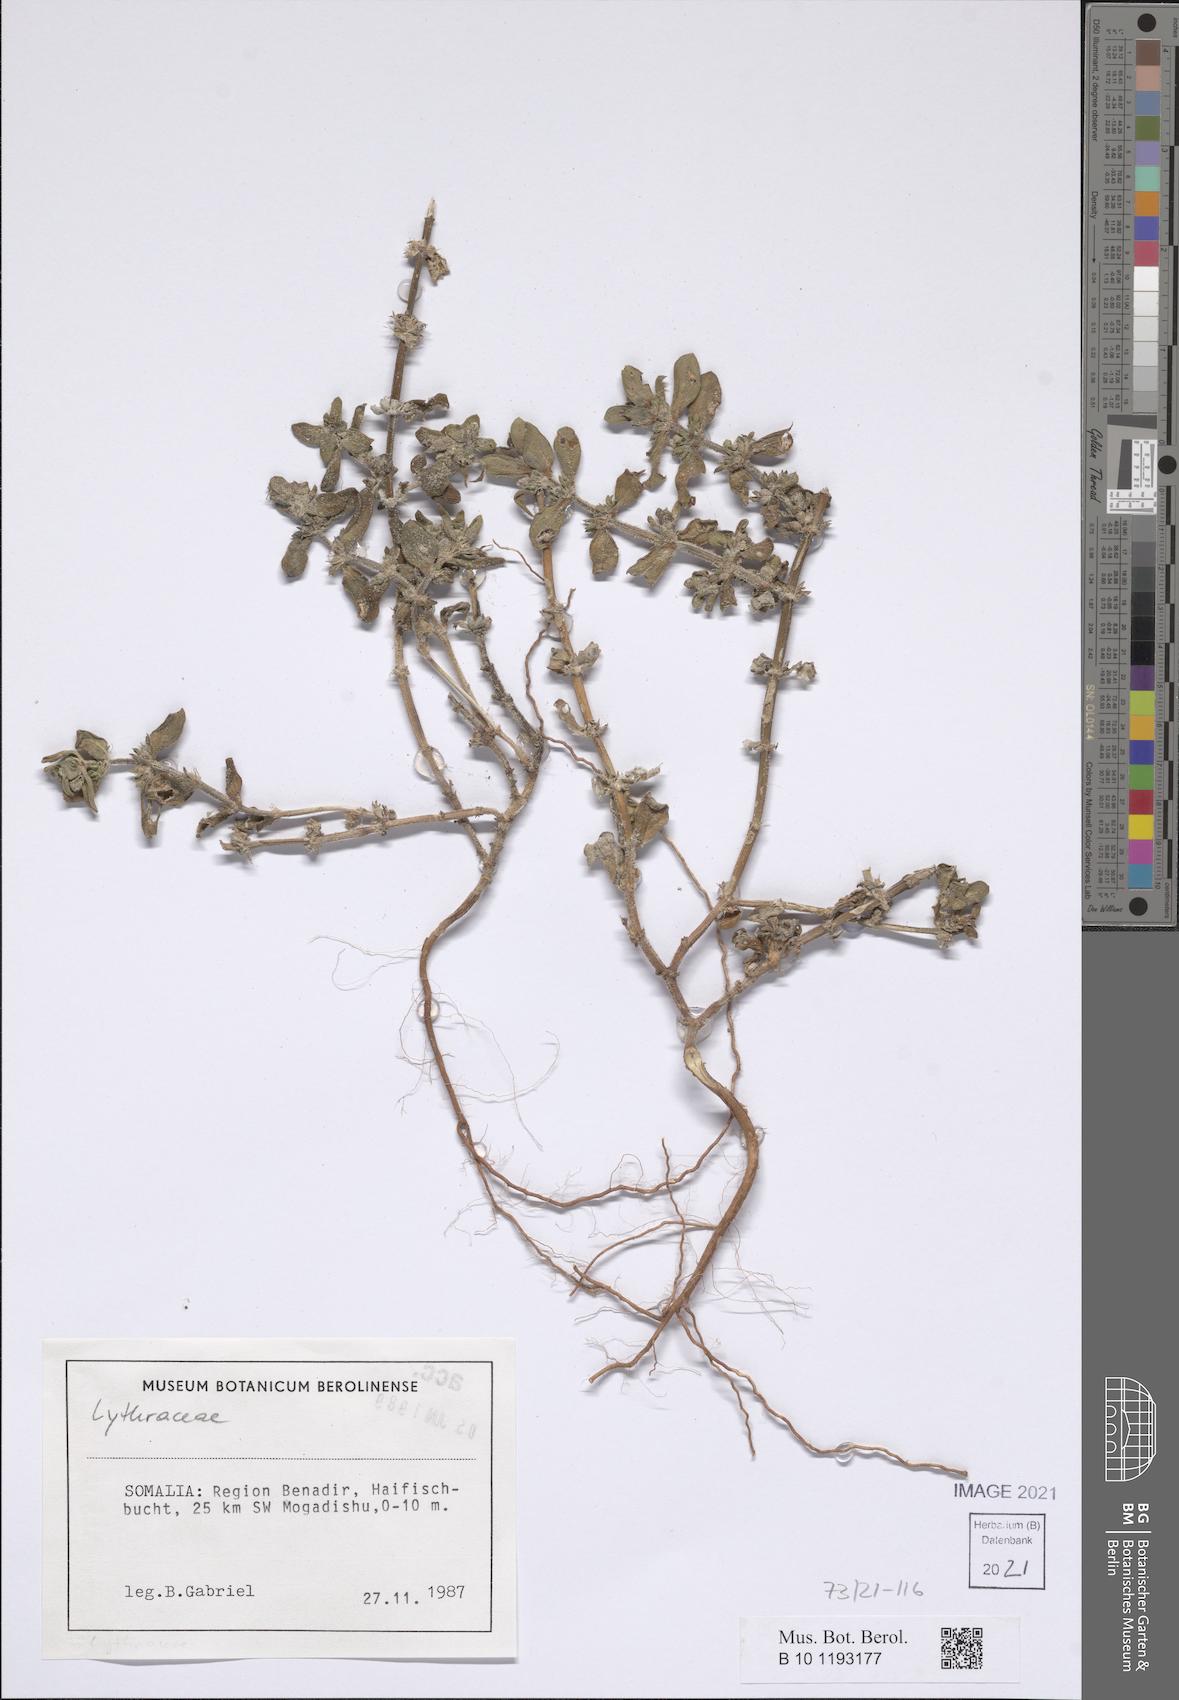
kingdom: Plantae
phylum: Tracheophyta
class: Magnoliopsida
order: Myrtales
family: Lythraceae
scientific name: Lythraceae
